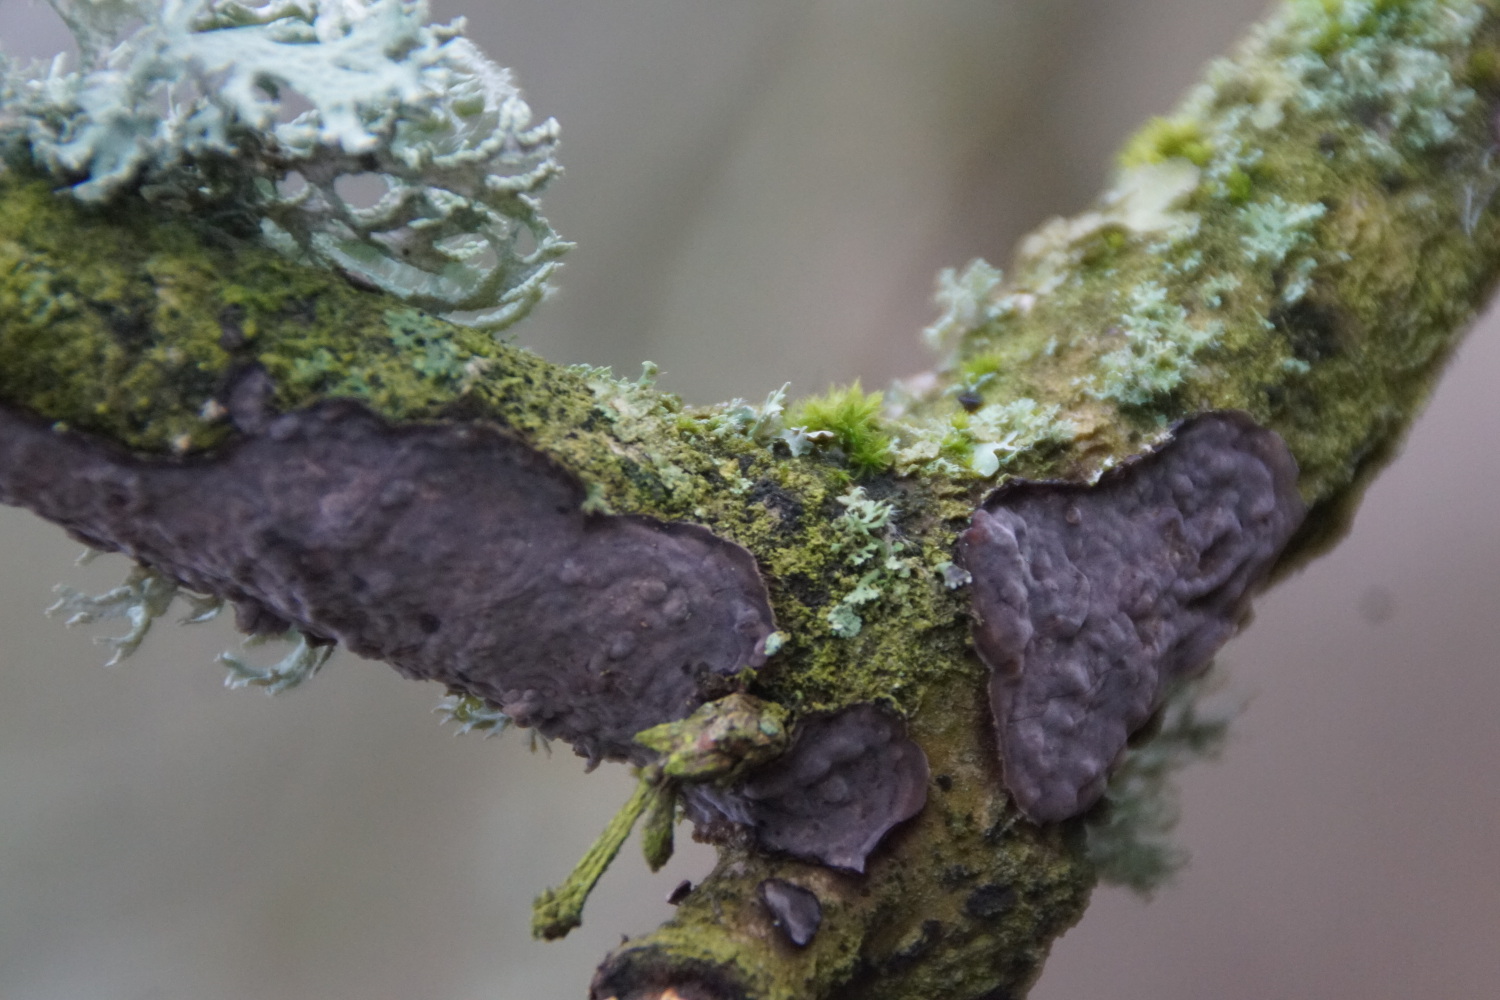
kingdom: Fungi
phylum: Basidiomycota
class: Agaricomycetes
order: Russulales
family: Peniophoraceae
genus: Peniophora
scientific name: Peniophora quercina
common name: ege-voksskind
